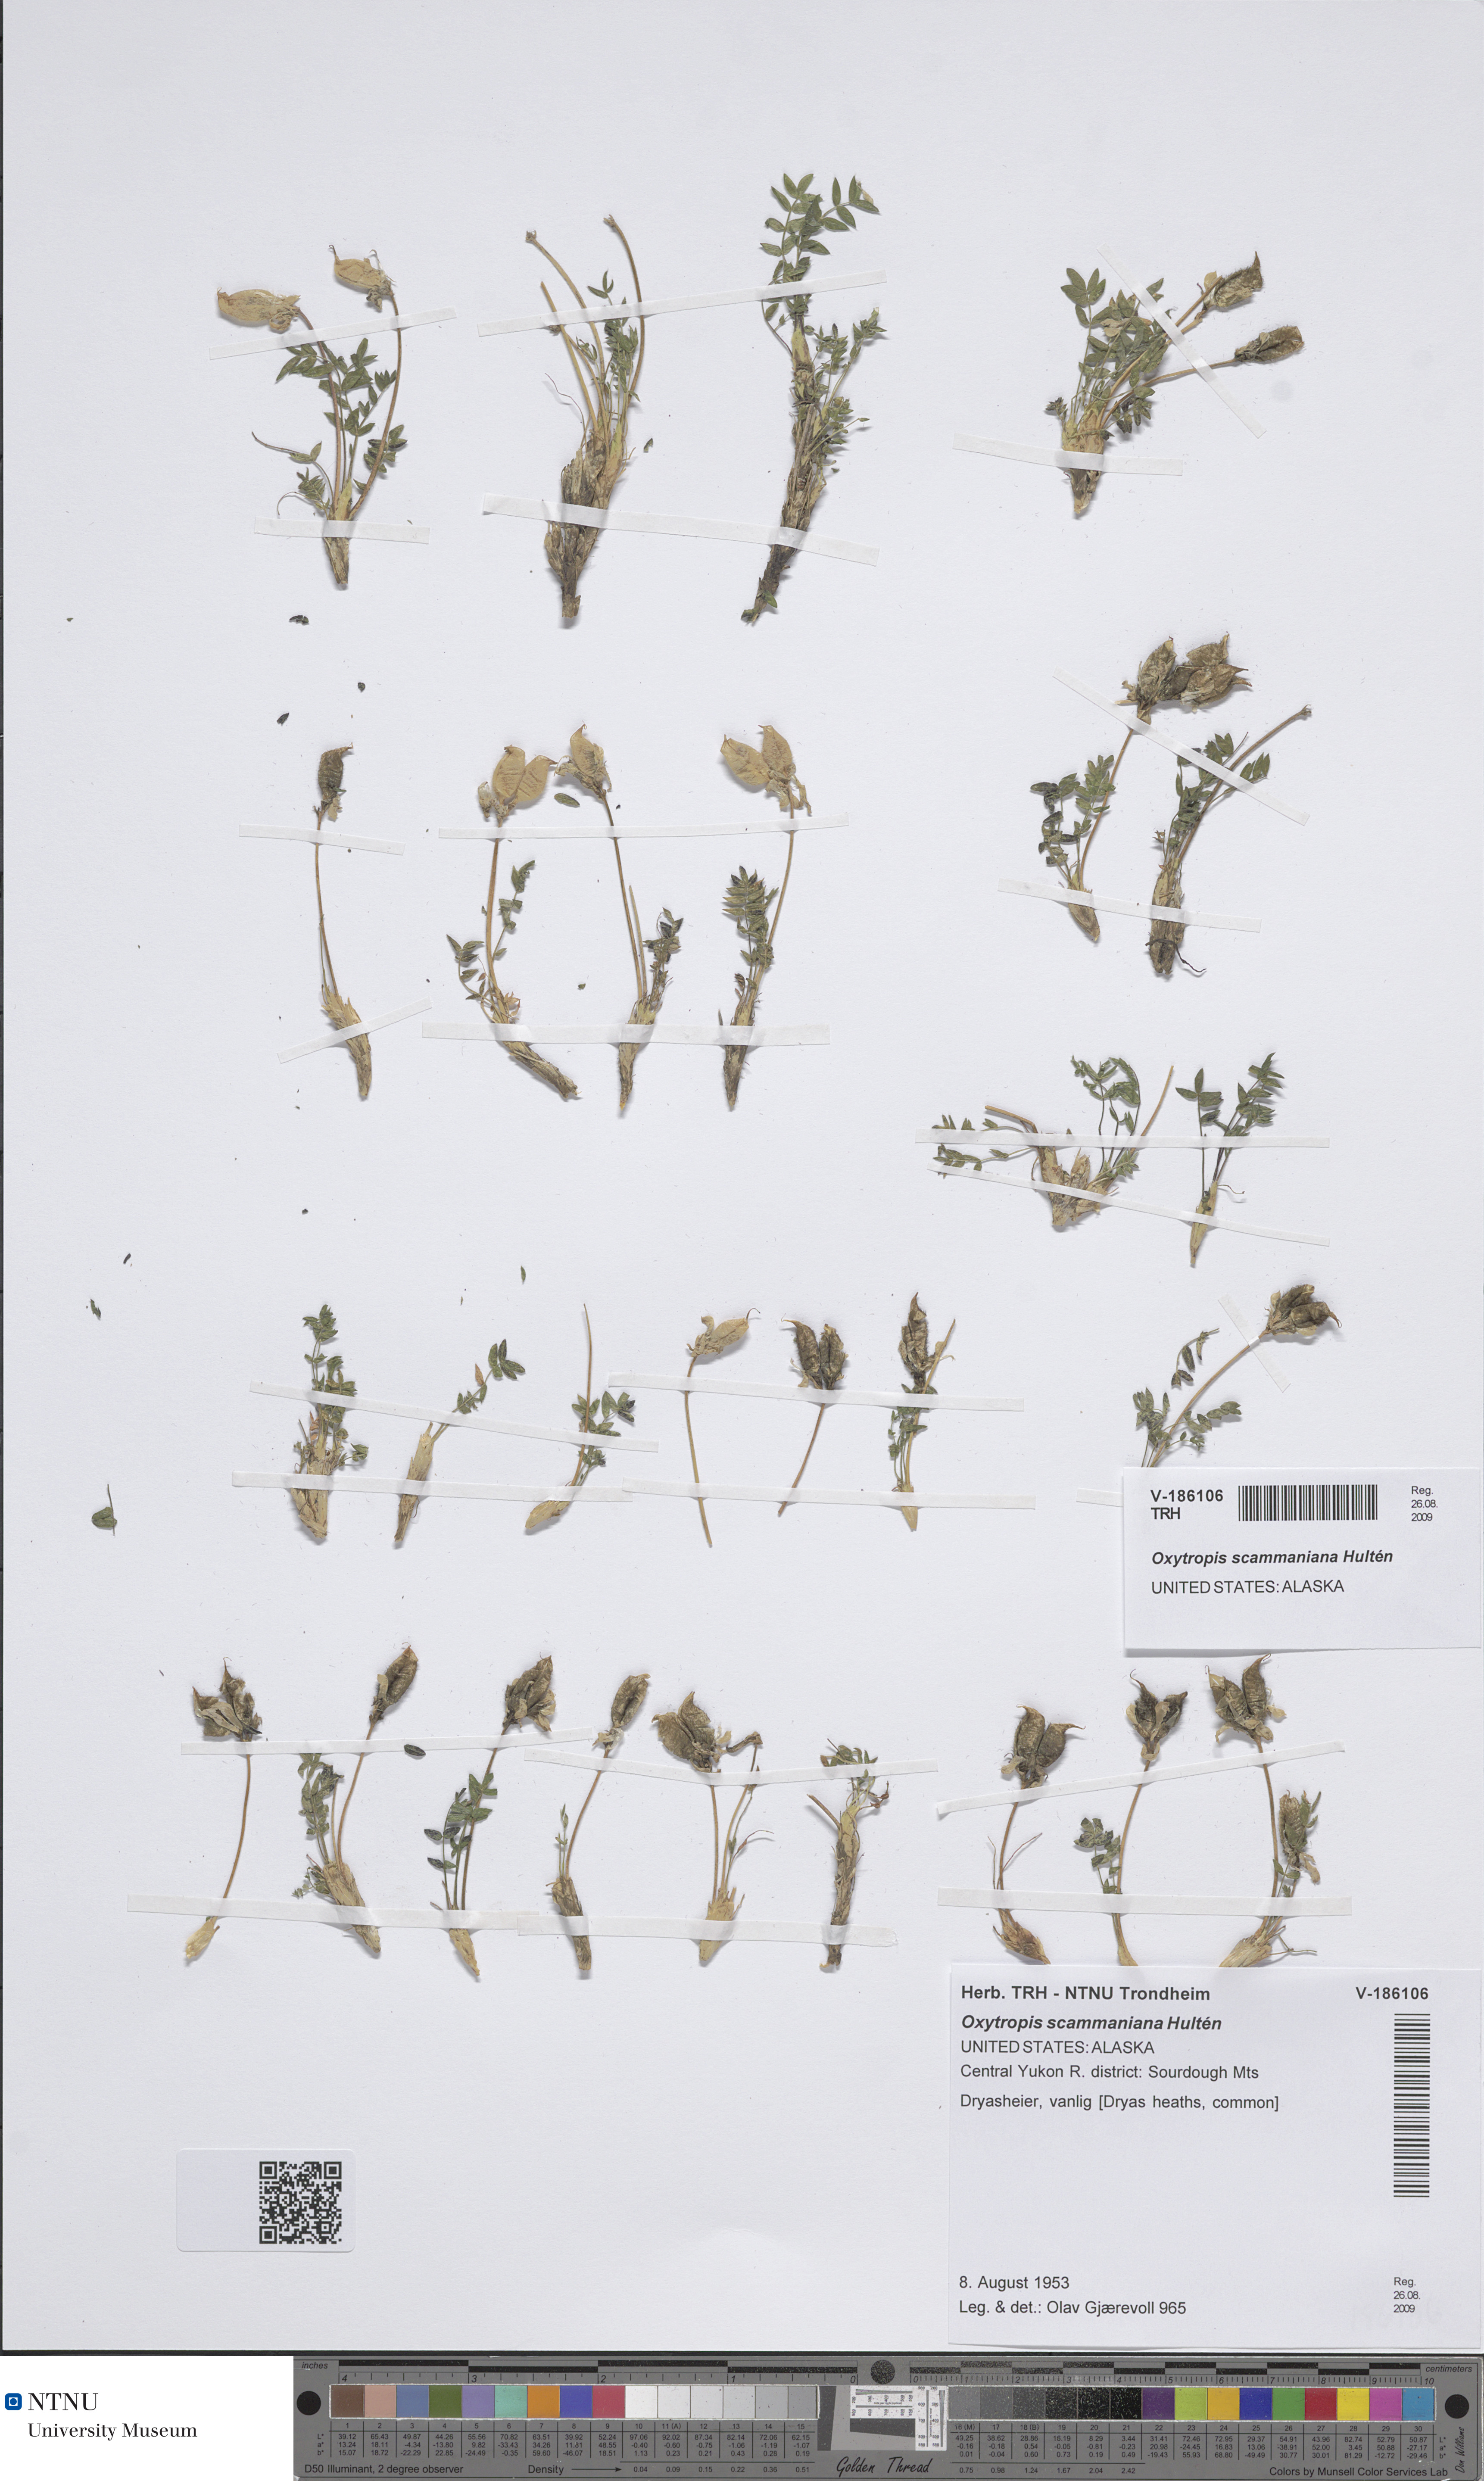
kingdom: Plantae
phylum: Tracheophyta
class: Magnoliopsida
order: Fabales
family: Fabaceae
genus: Oxytropis
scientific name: Oxytropis scammaniana
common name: Scamman's locoweed
